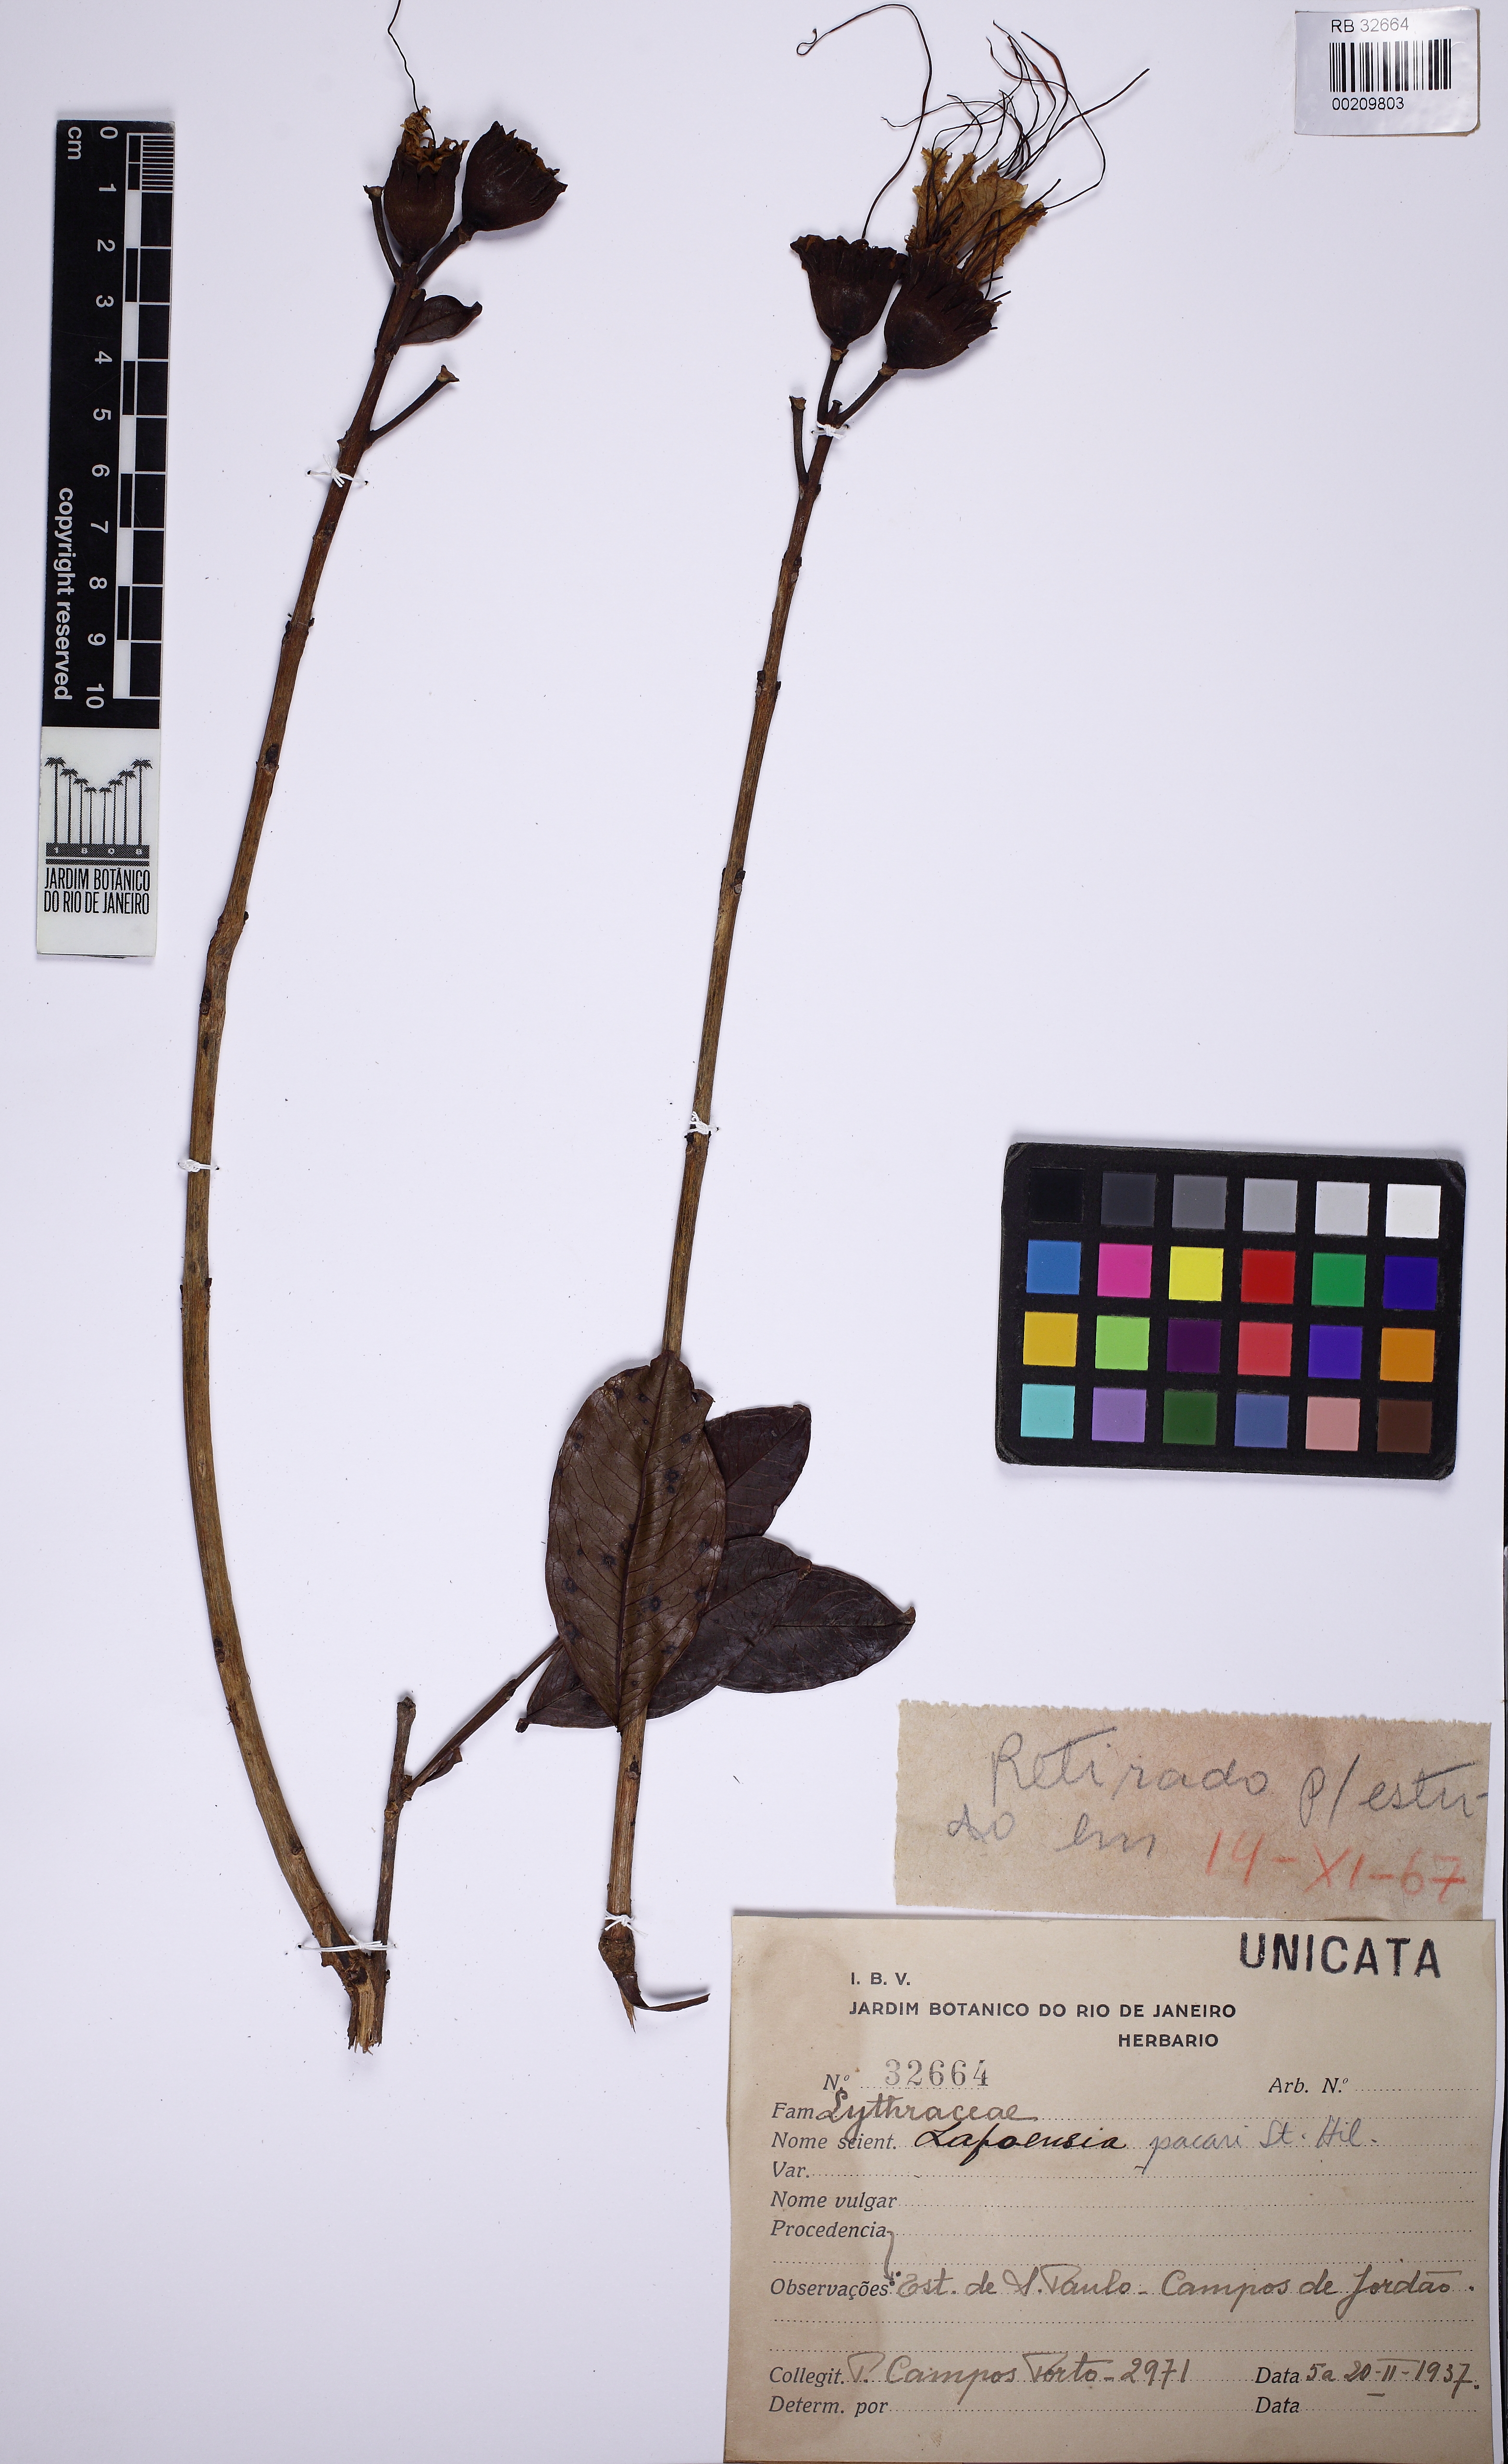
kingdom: Plantae
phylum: Tracheophyta
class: Magnoliopsida
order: Myrtales
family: Lythraceae
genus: Lafoensia
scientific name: Lafoensia pacari
